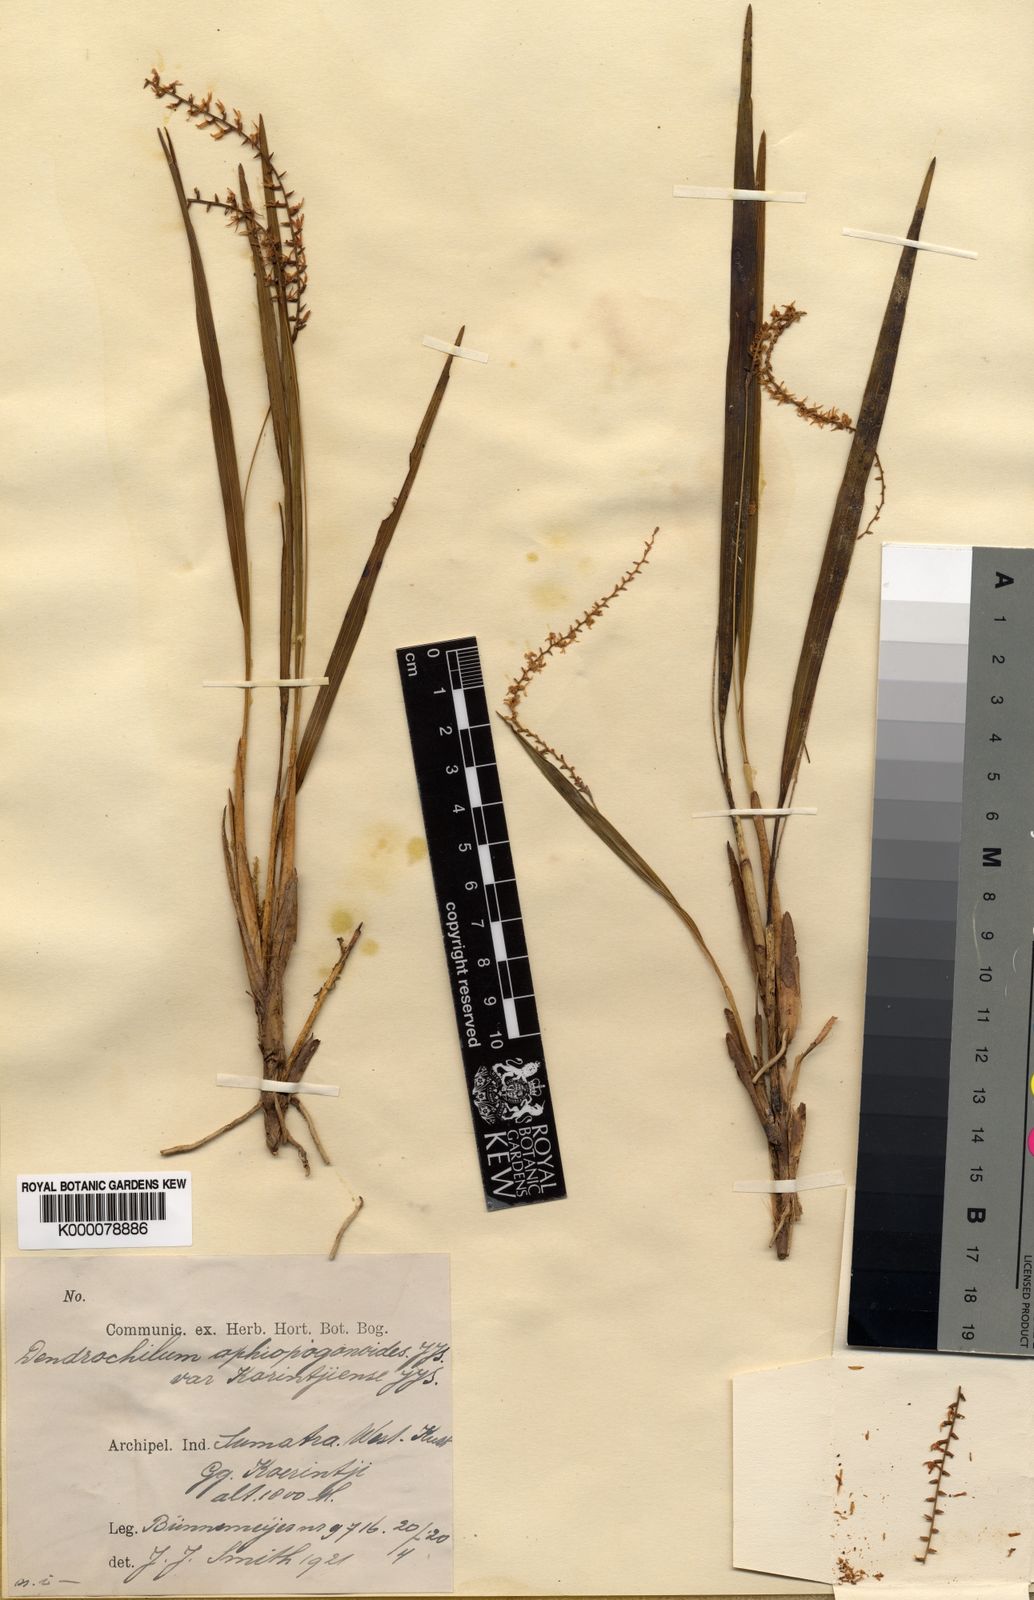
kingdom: Plantae
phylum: Tracheophyta
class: Liliopsida
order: Asparagales
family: Orchidaceae
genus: Coelogyne
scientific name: Coelogyne ophiopogonoides
